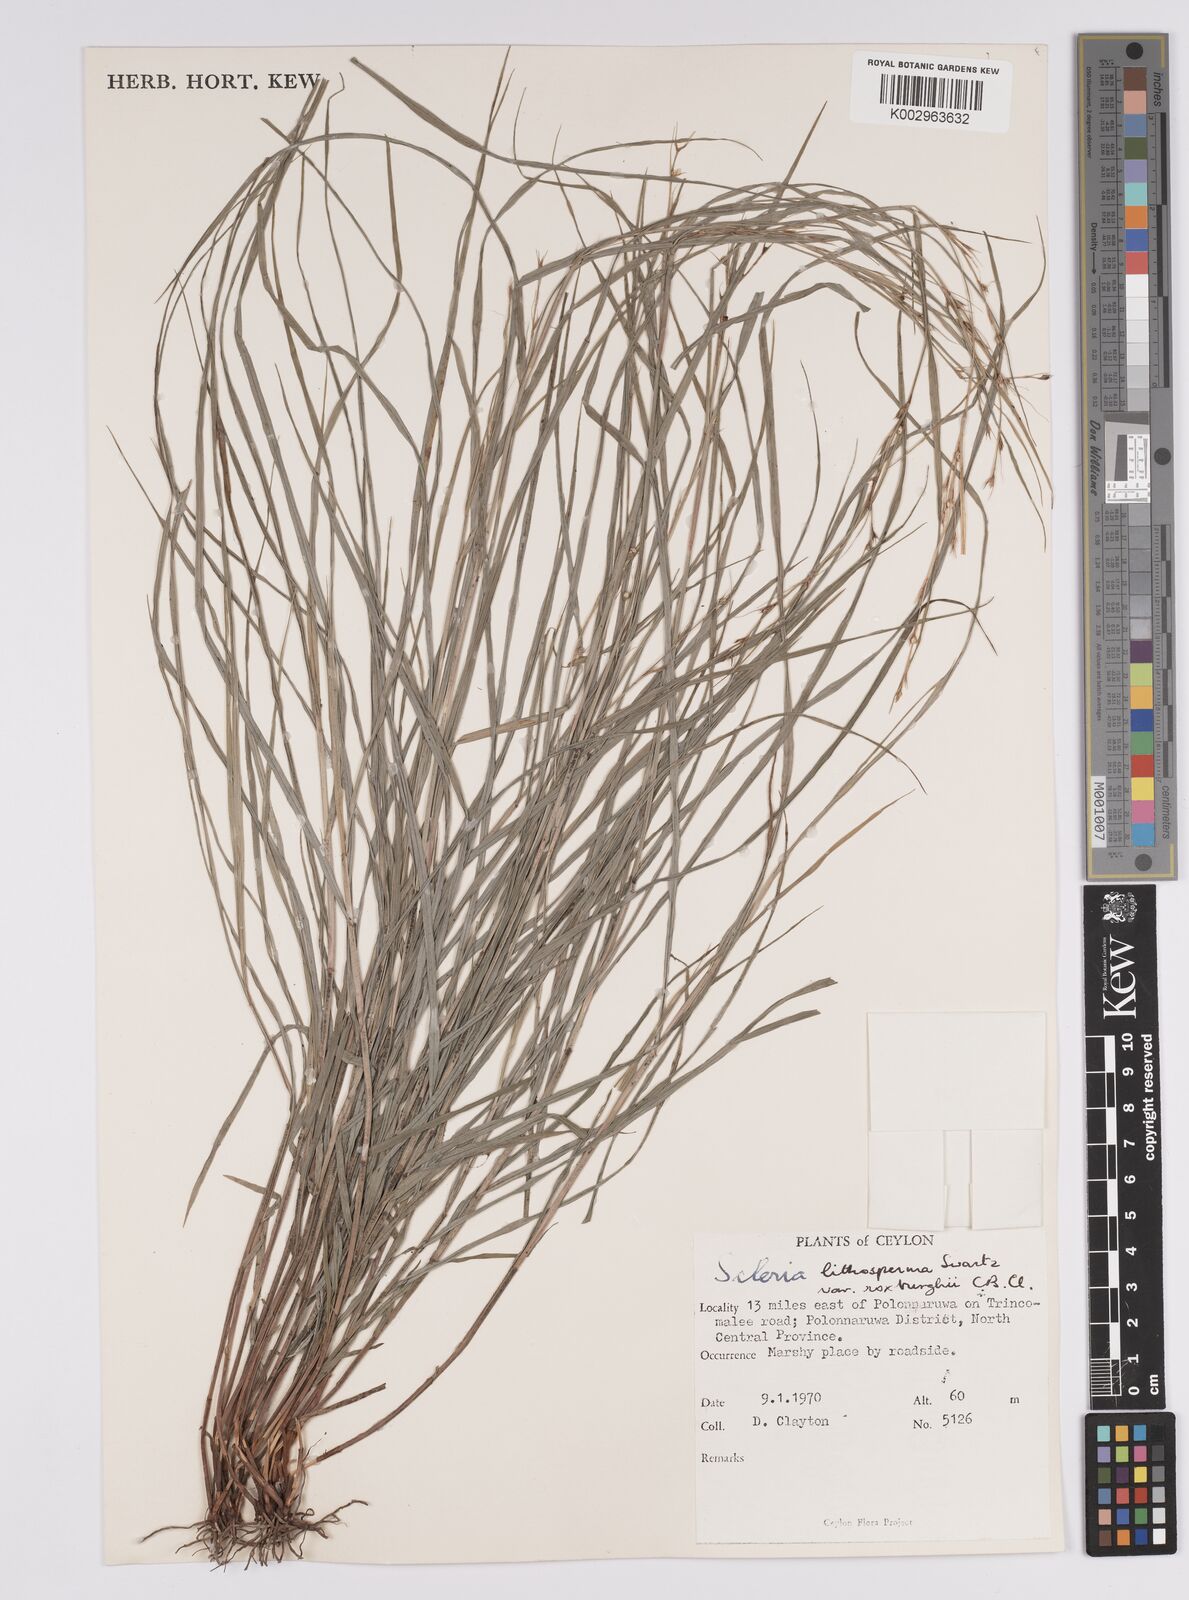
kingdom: Plantae
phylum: Tracheophyta
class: Liliopsida
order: Poales
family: Cyperaceae
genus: Scleria
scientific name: Scleria lithosperma
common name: Florida keys nut-rush
